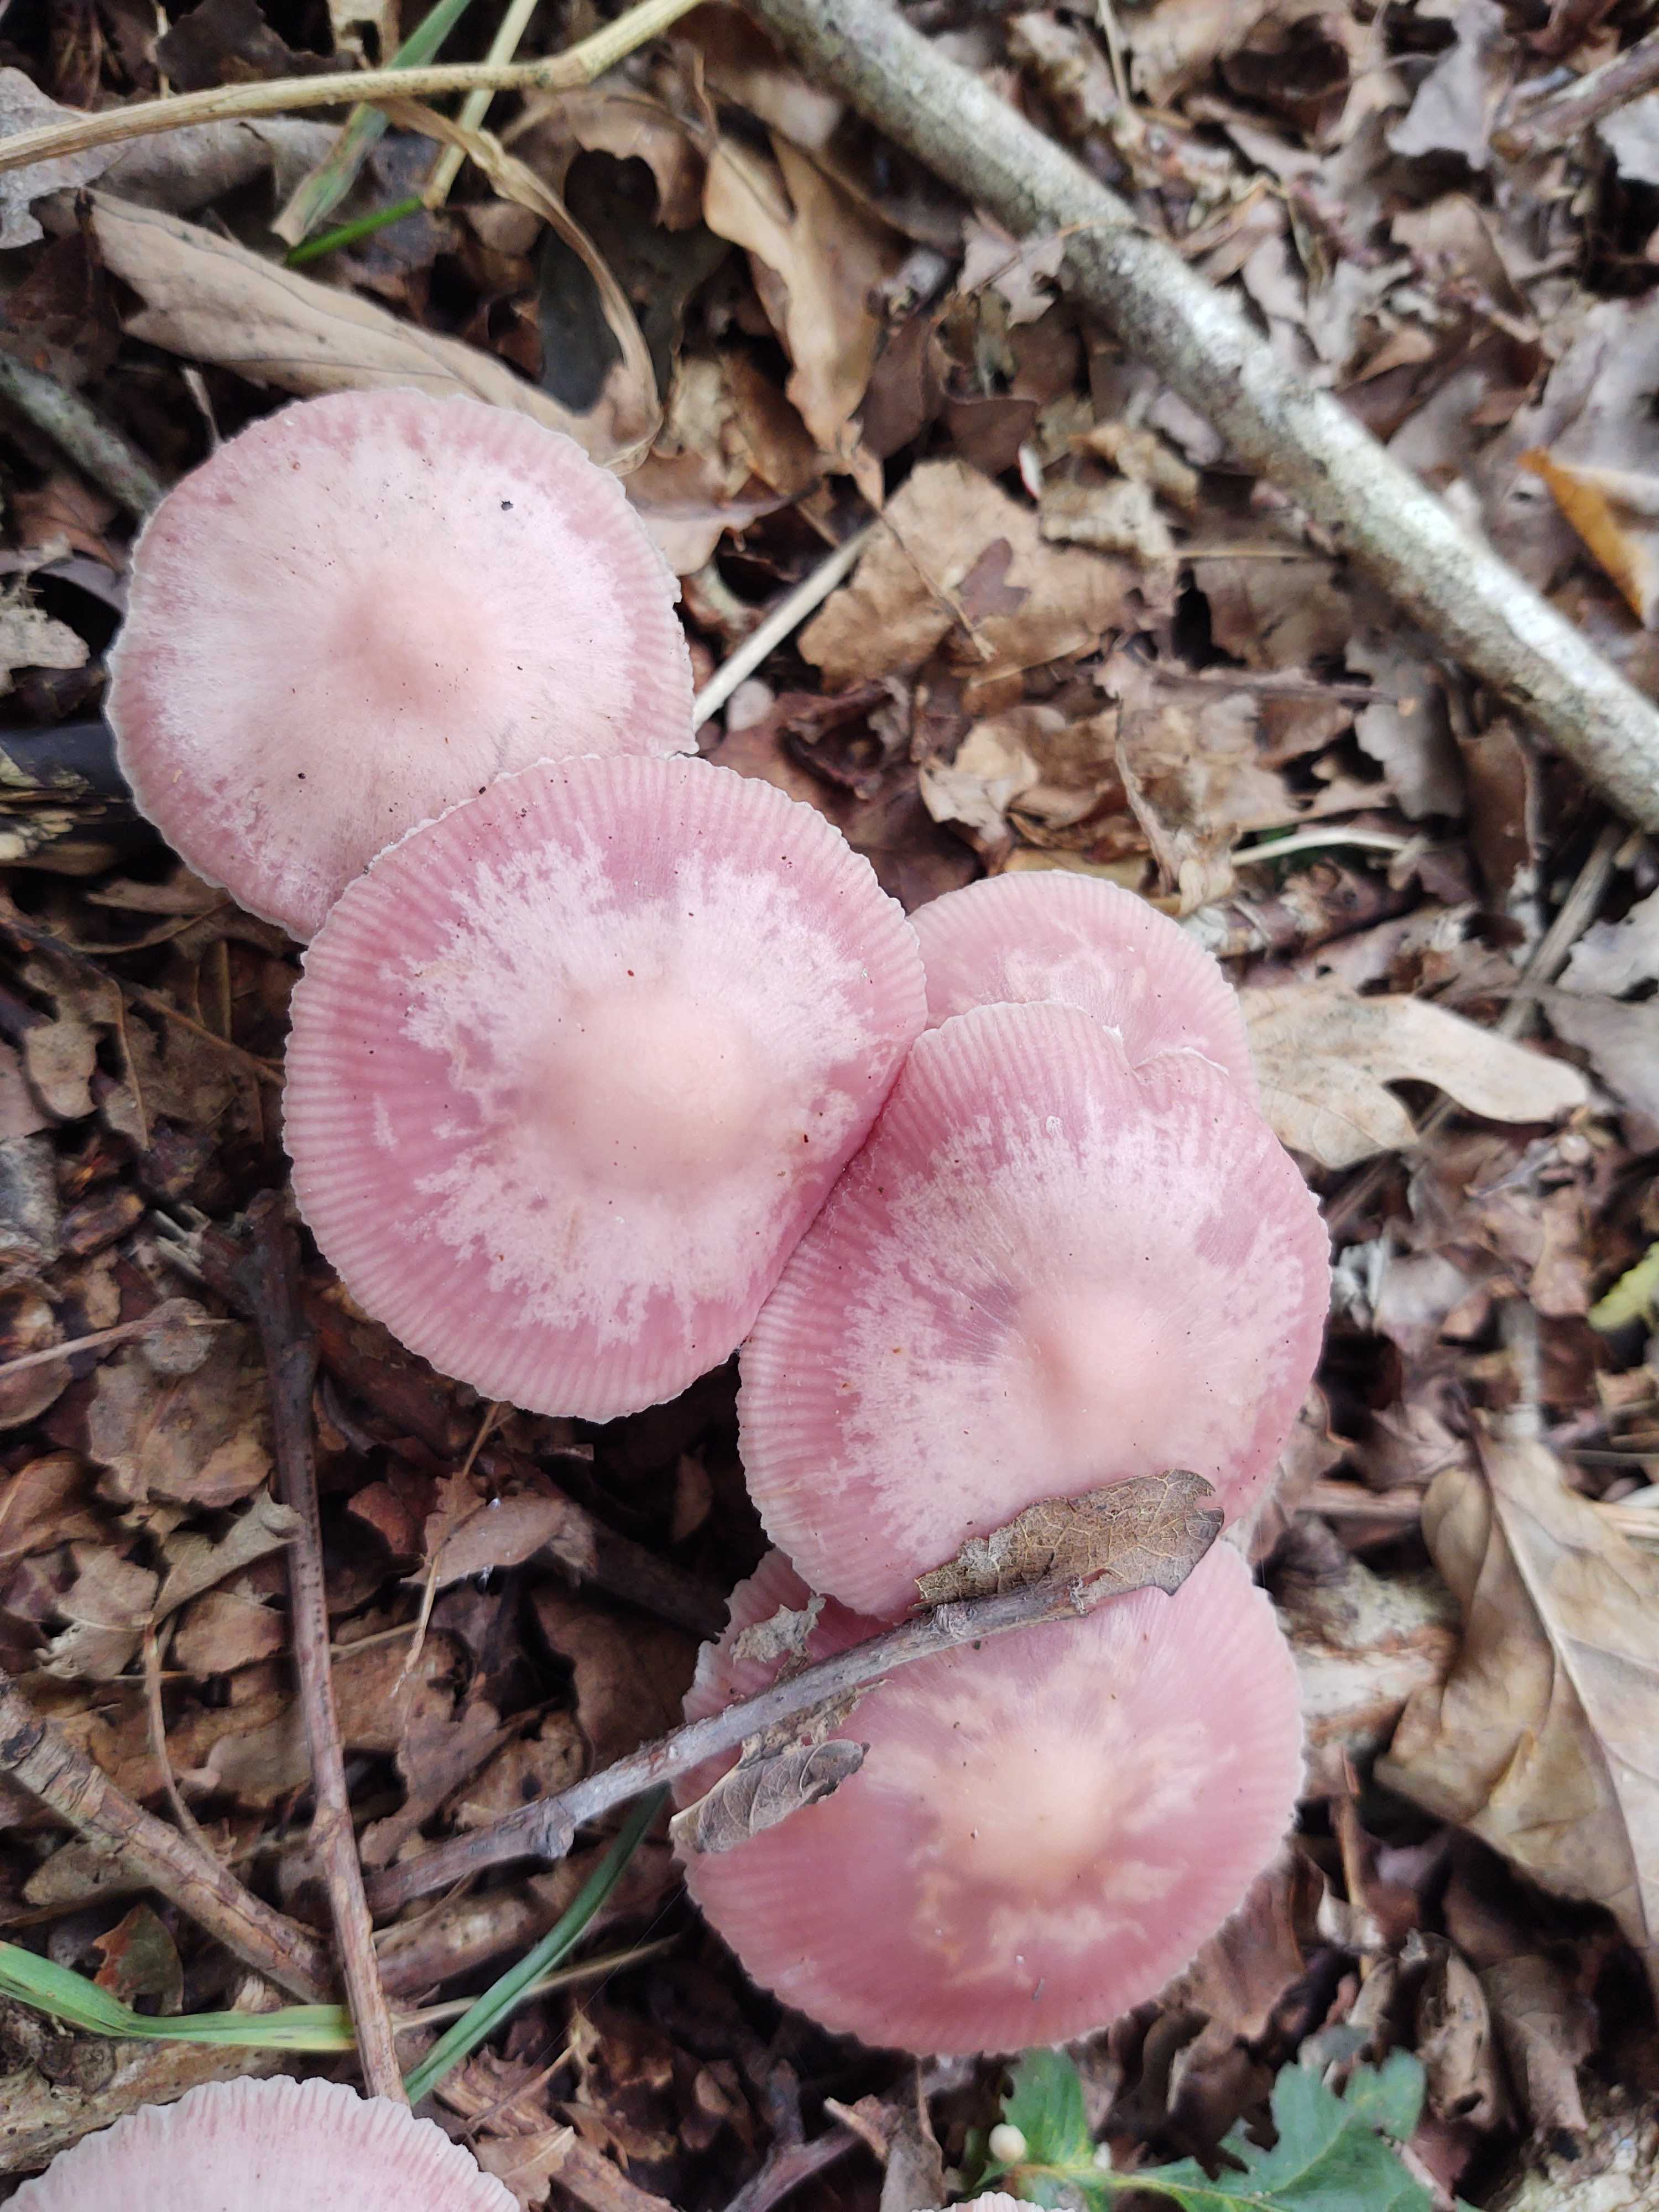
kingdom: Fungi
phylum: Basidiomycota
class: Agaricomycetes
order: Agaricales
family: Mycenaceae
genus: Mycena
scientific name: Mycena rosea
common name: rosa huesvamp
